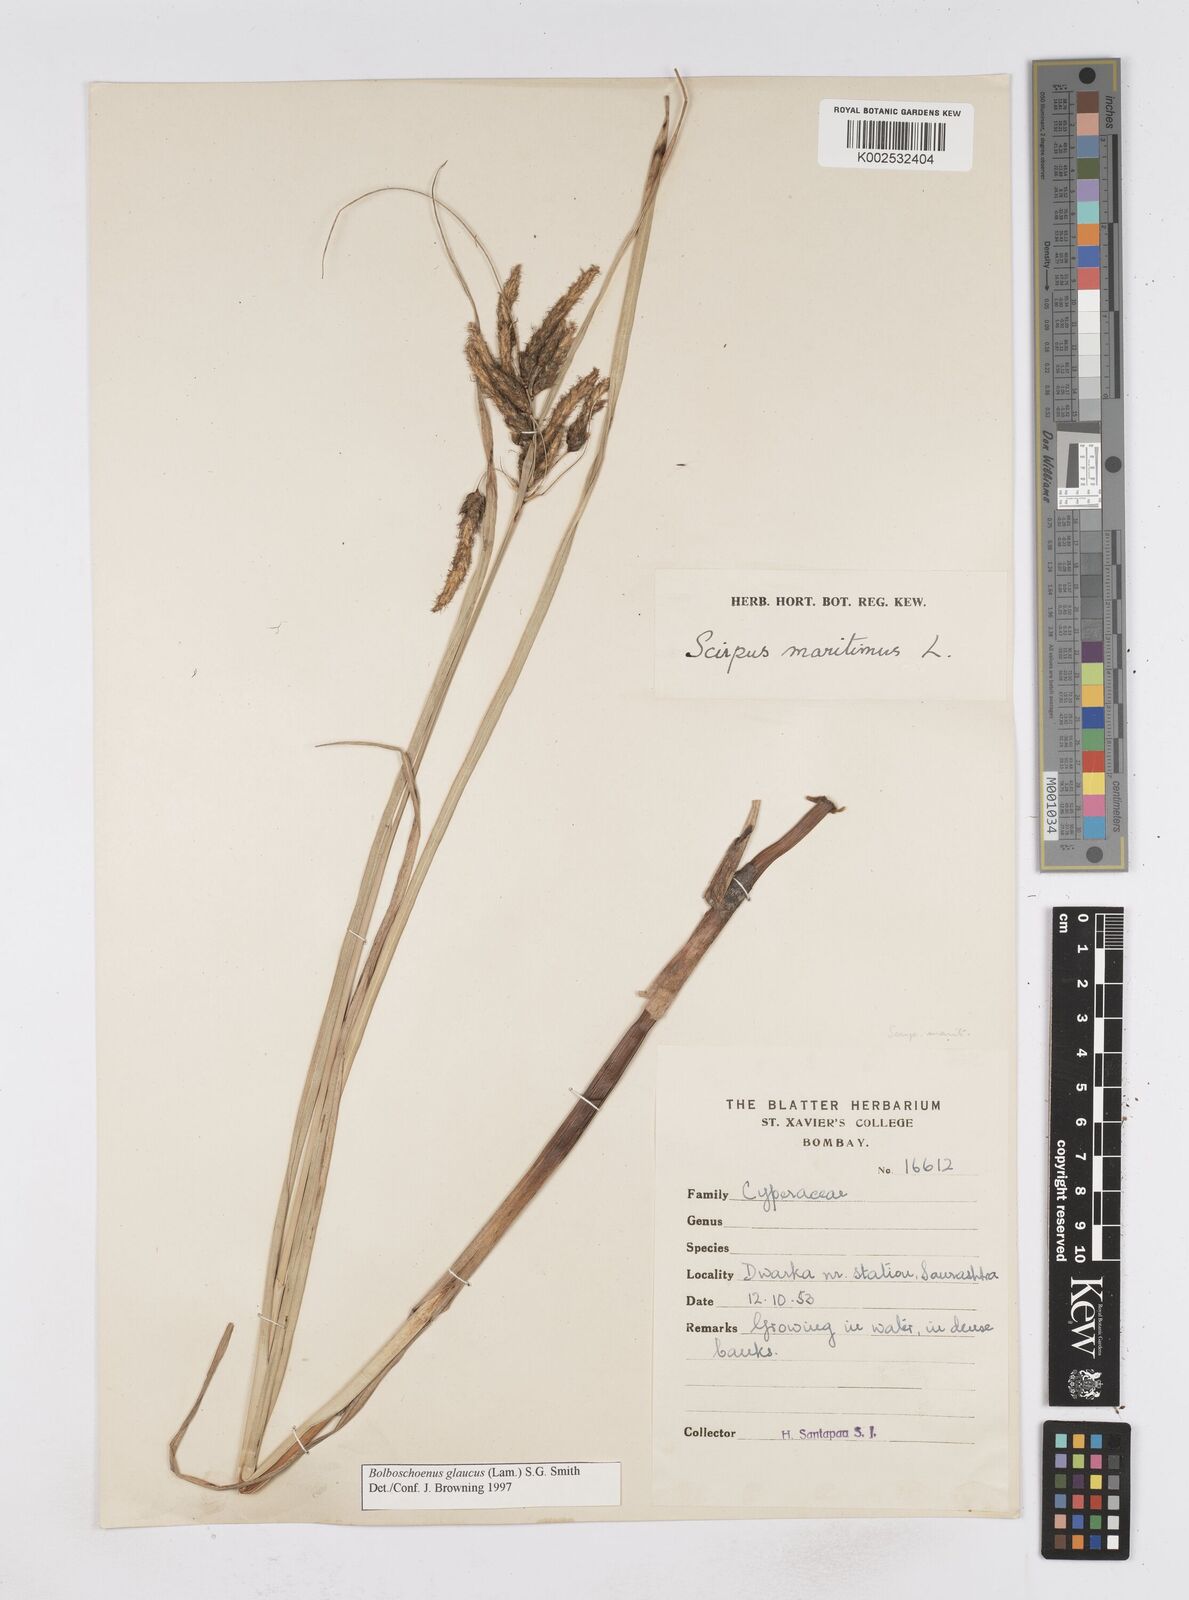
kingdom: Plantae
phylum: Tracheophyta
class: Liliopsida
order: Poales
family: Cyperaceae
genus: Bolboschoenus
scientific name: Bolboschoenus maritimus
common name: Sea club-rush
